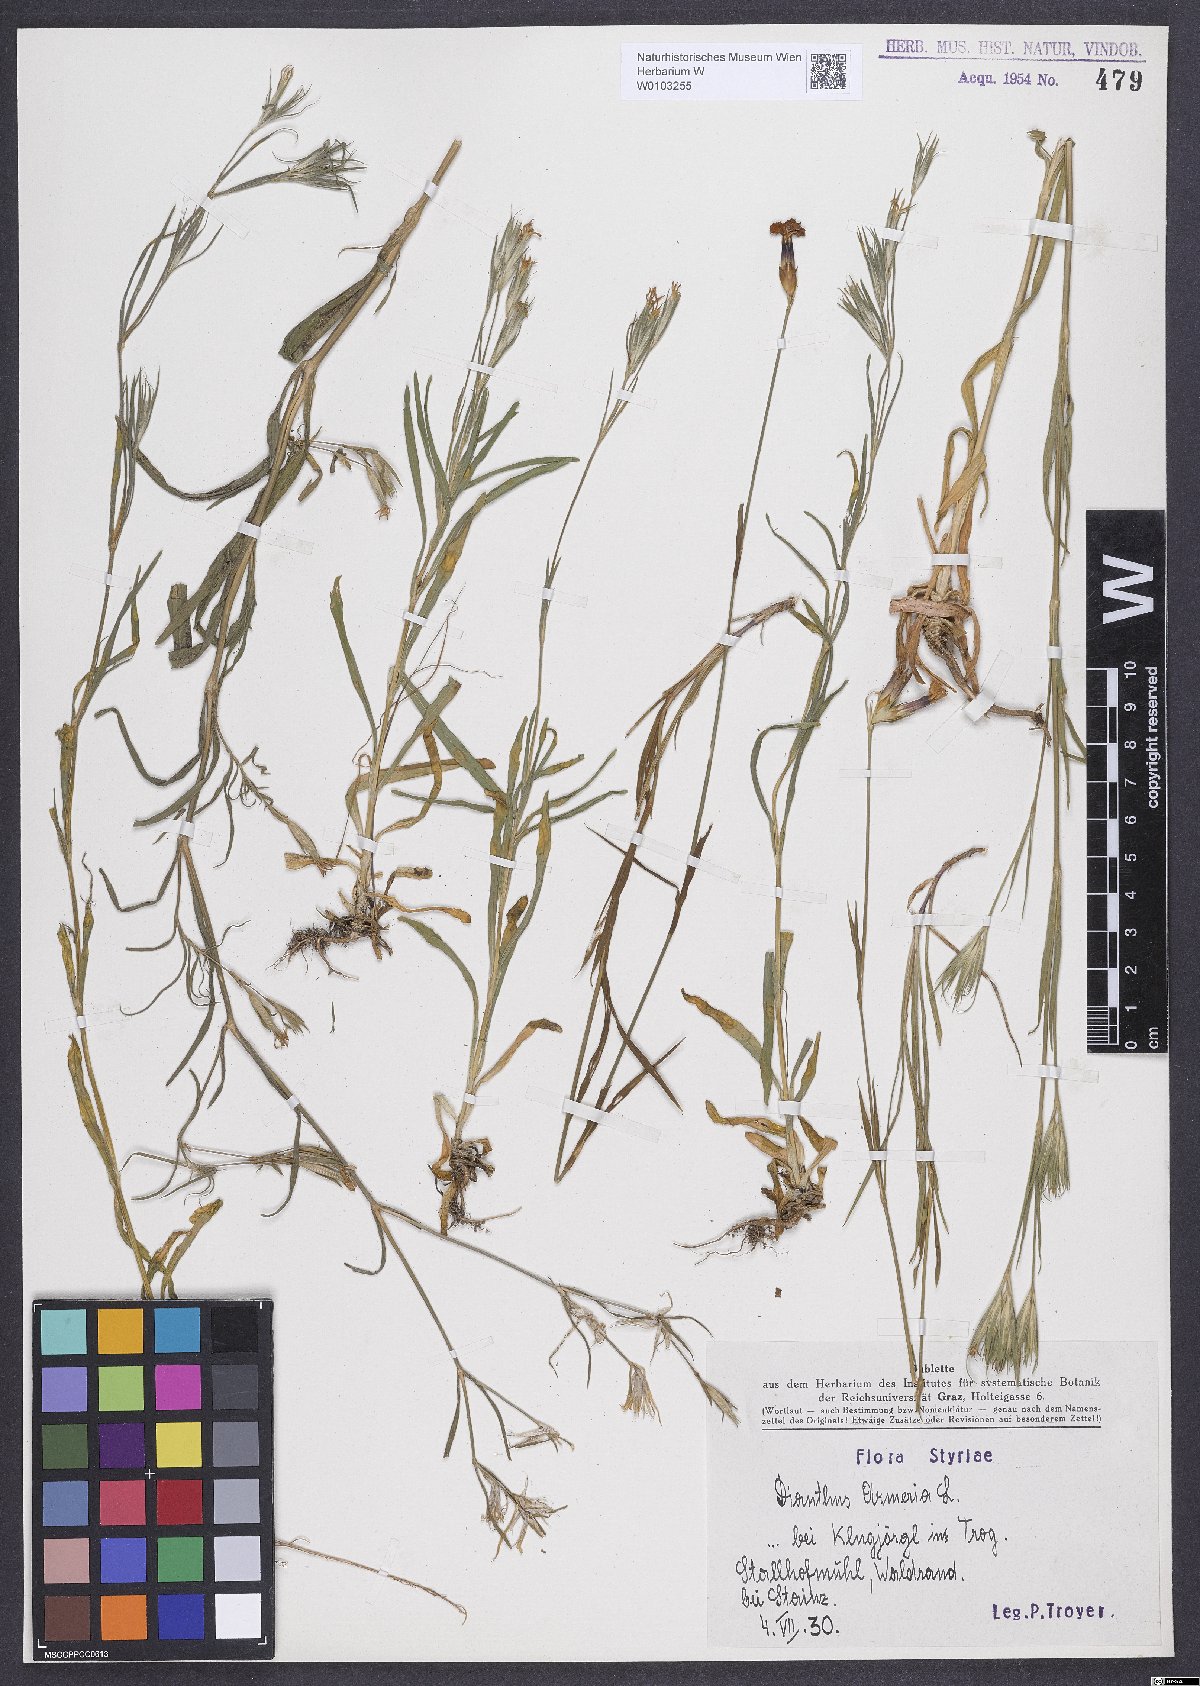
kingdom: Plantae
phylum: Tracheophyta
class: Magnoliopsida
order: Caryophyllales
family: Caryophyllaceae
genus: Dianthus
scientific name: Dianthus armeria
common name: Deptford pink
